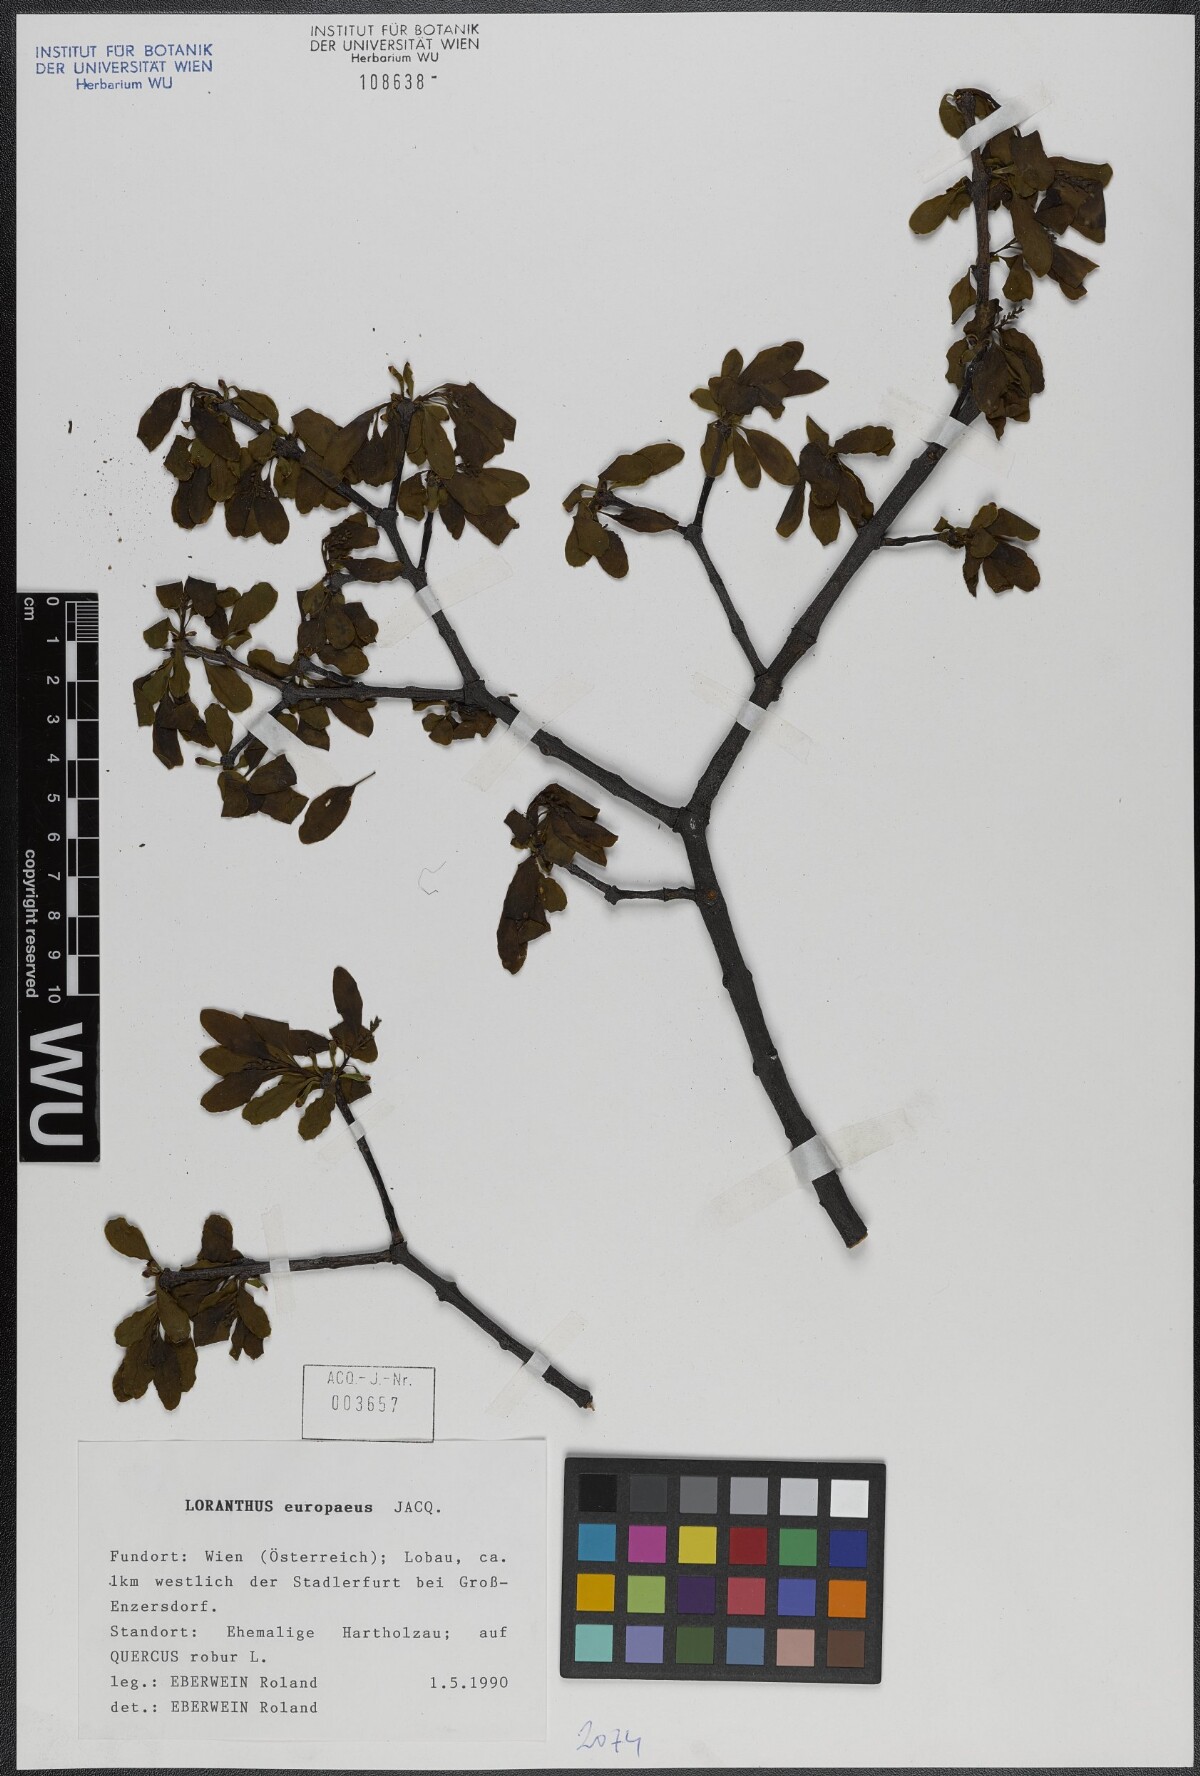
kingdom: Plantae
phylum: Tracheophyta
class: Magnoliopsida
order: Santalales
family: Loranthaceae
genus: Loranthus
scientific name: Loranthus europaeus
